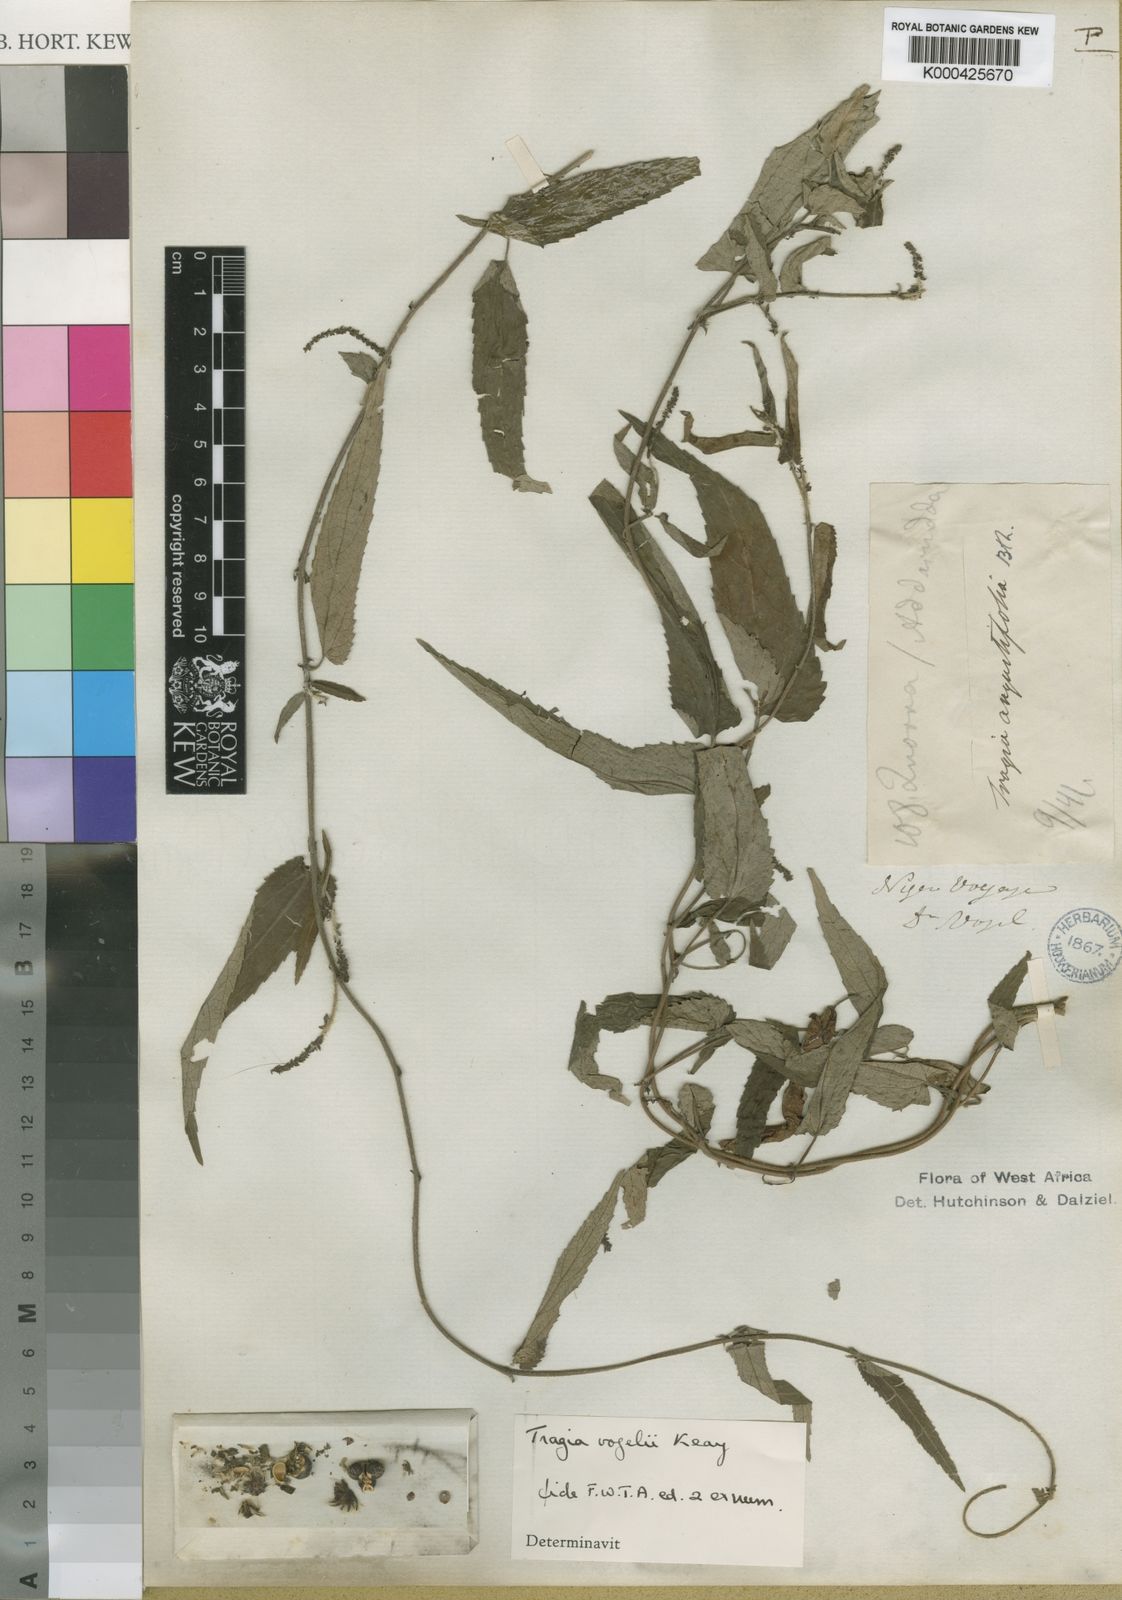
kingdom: Plantae
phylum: Tracheophyta
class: Magnoliopsida
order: Malpighiales
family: Euphorbiaceae
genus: Tragia
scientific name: Tragia vogelii
